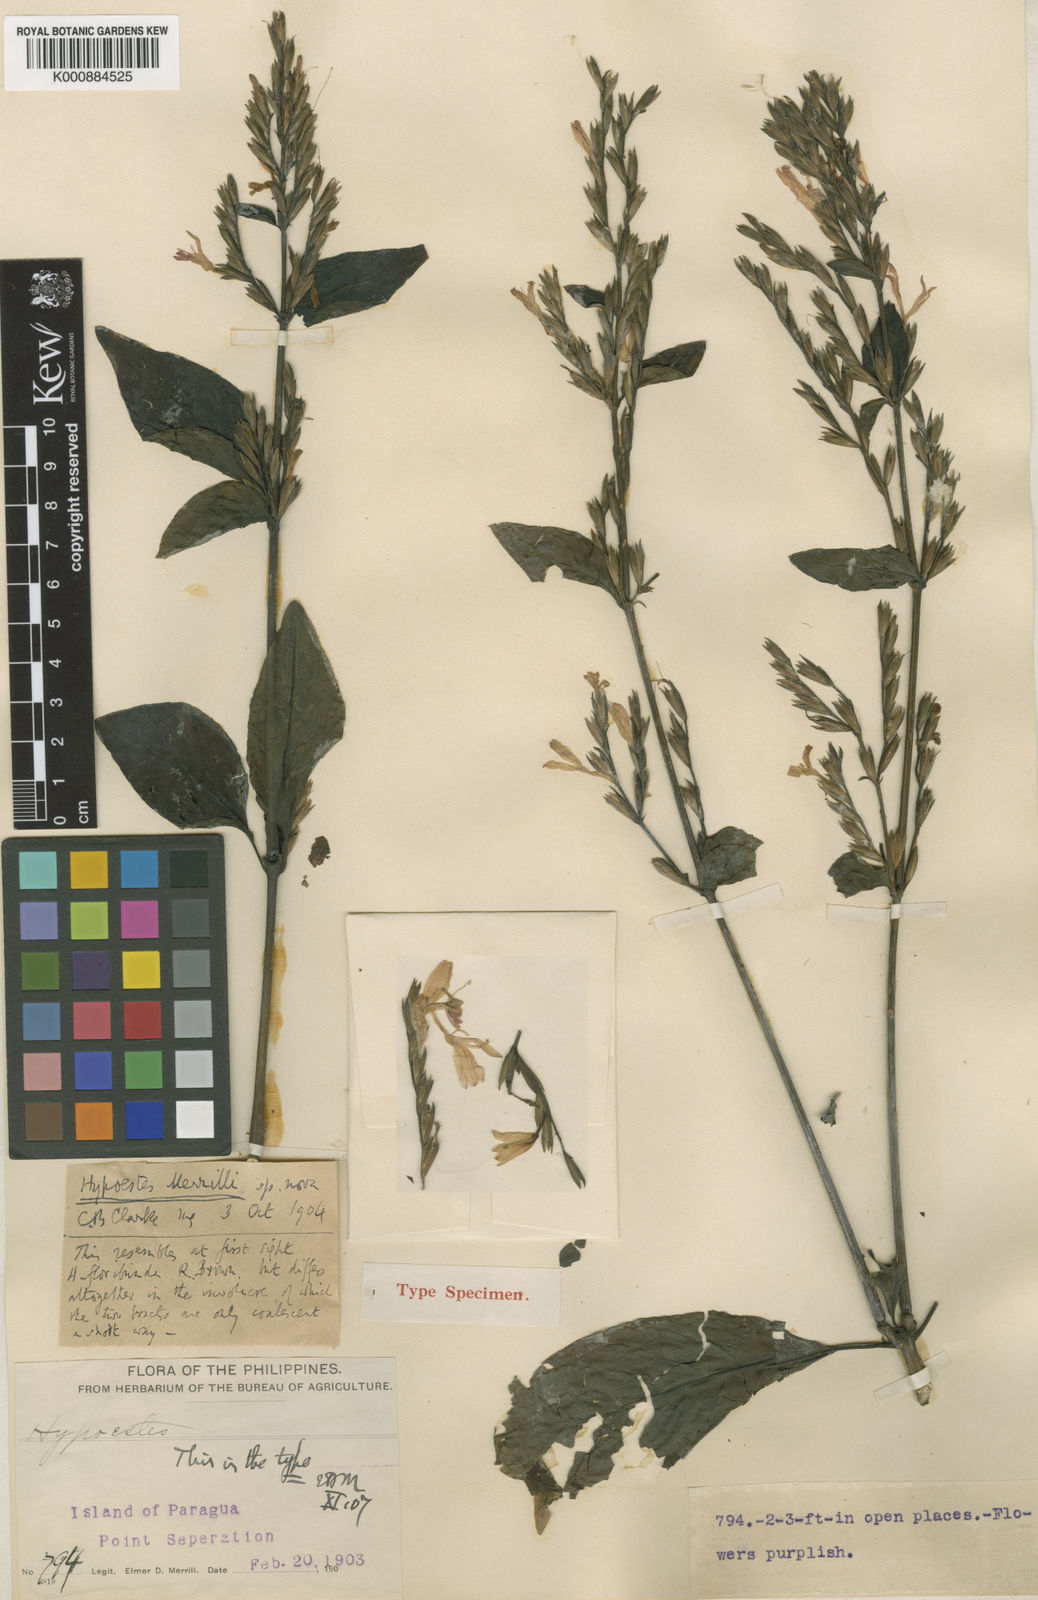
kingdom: Plantae
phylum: Tracheophyta
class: Magnoliopsida
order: Lamiales
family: Acanthaceae
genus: Hypoestes
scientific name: Hypoestes merrillii
